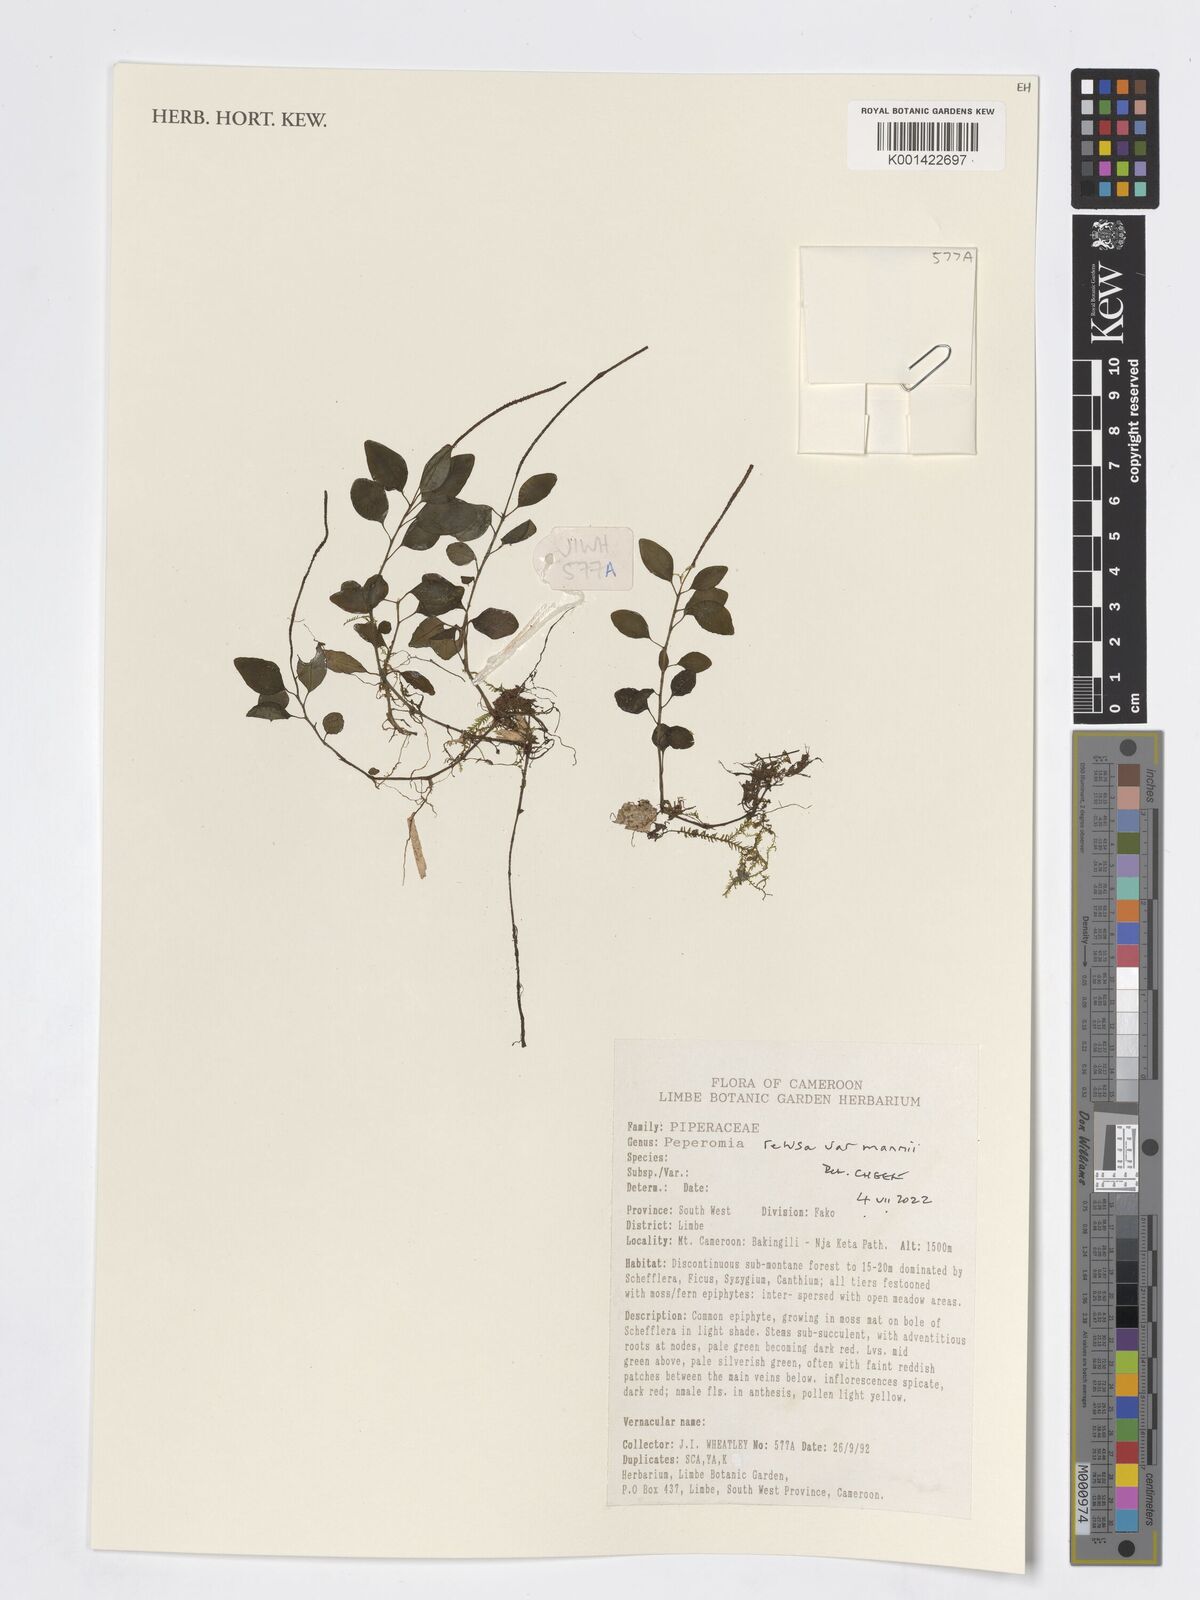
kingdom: Plantae
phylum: Tracheophyta
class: Magnoliopsida
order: Piperales
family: Piperaceae
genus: Peperomia
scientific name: Peperomia
